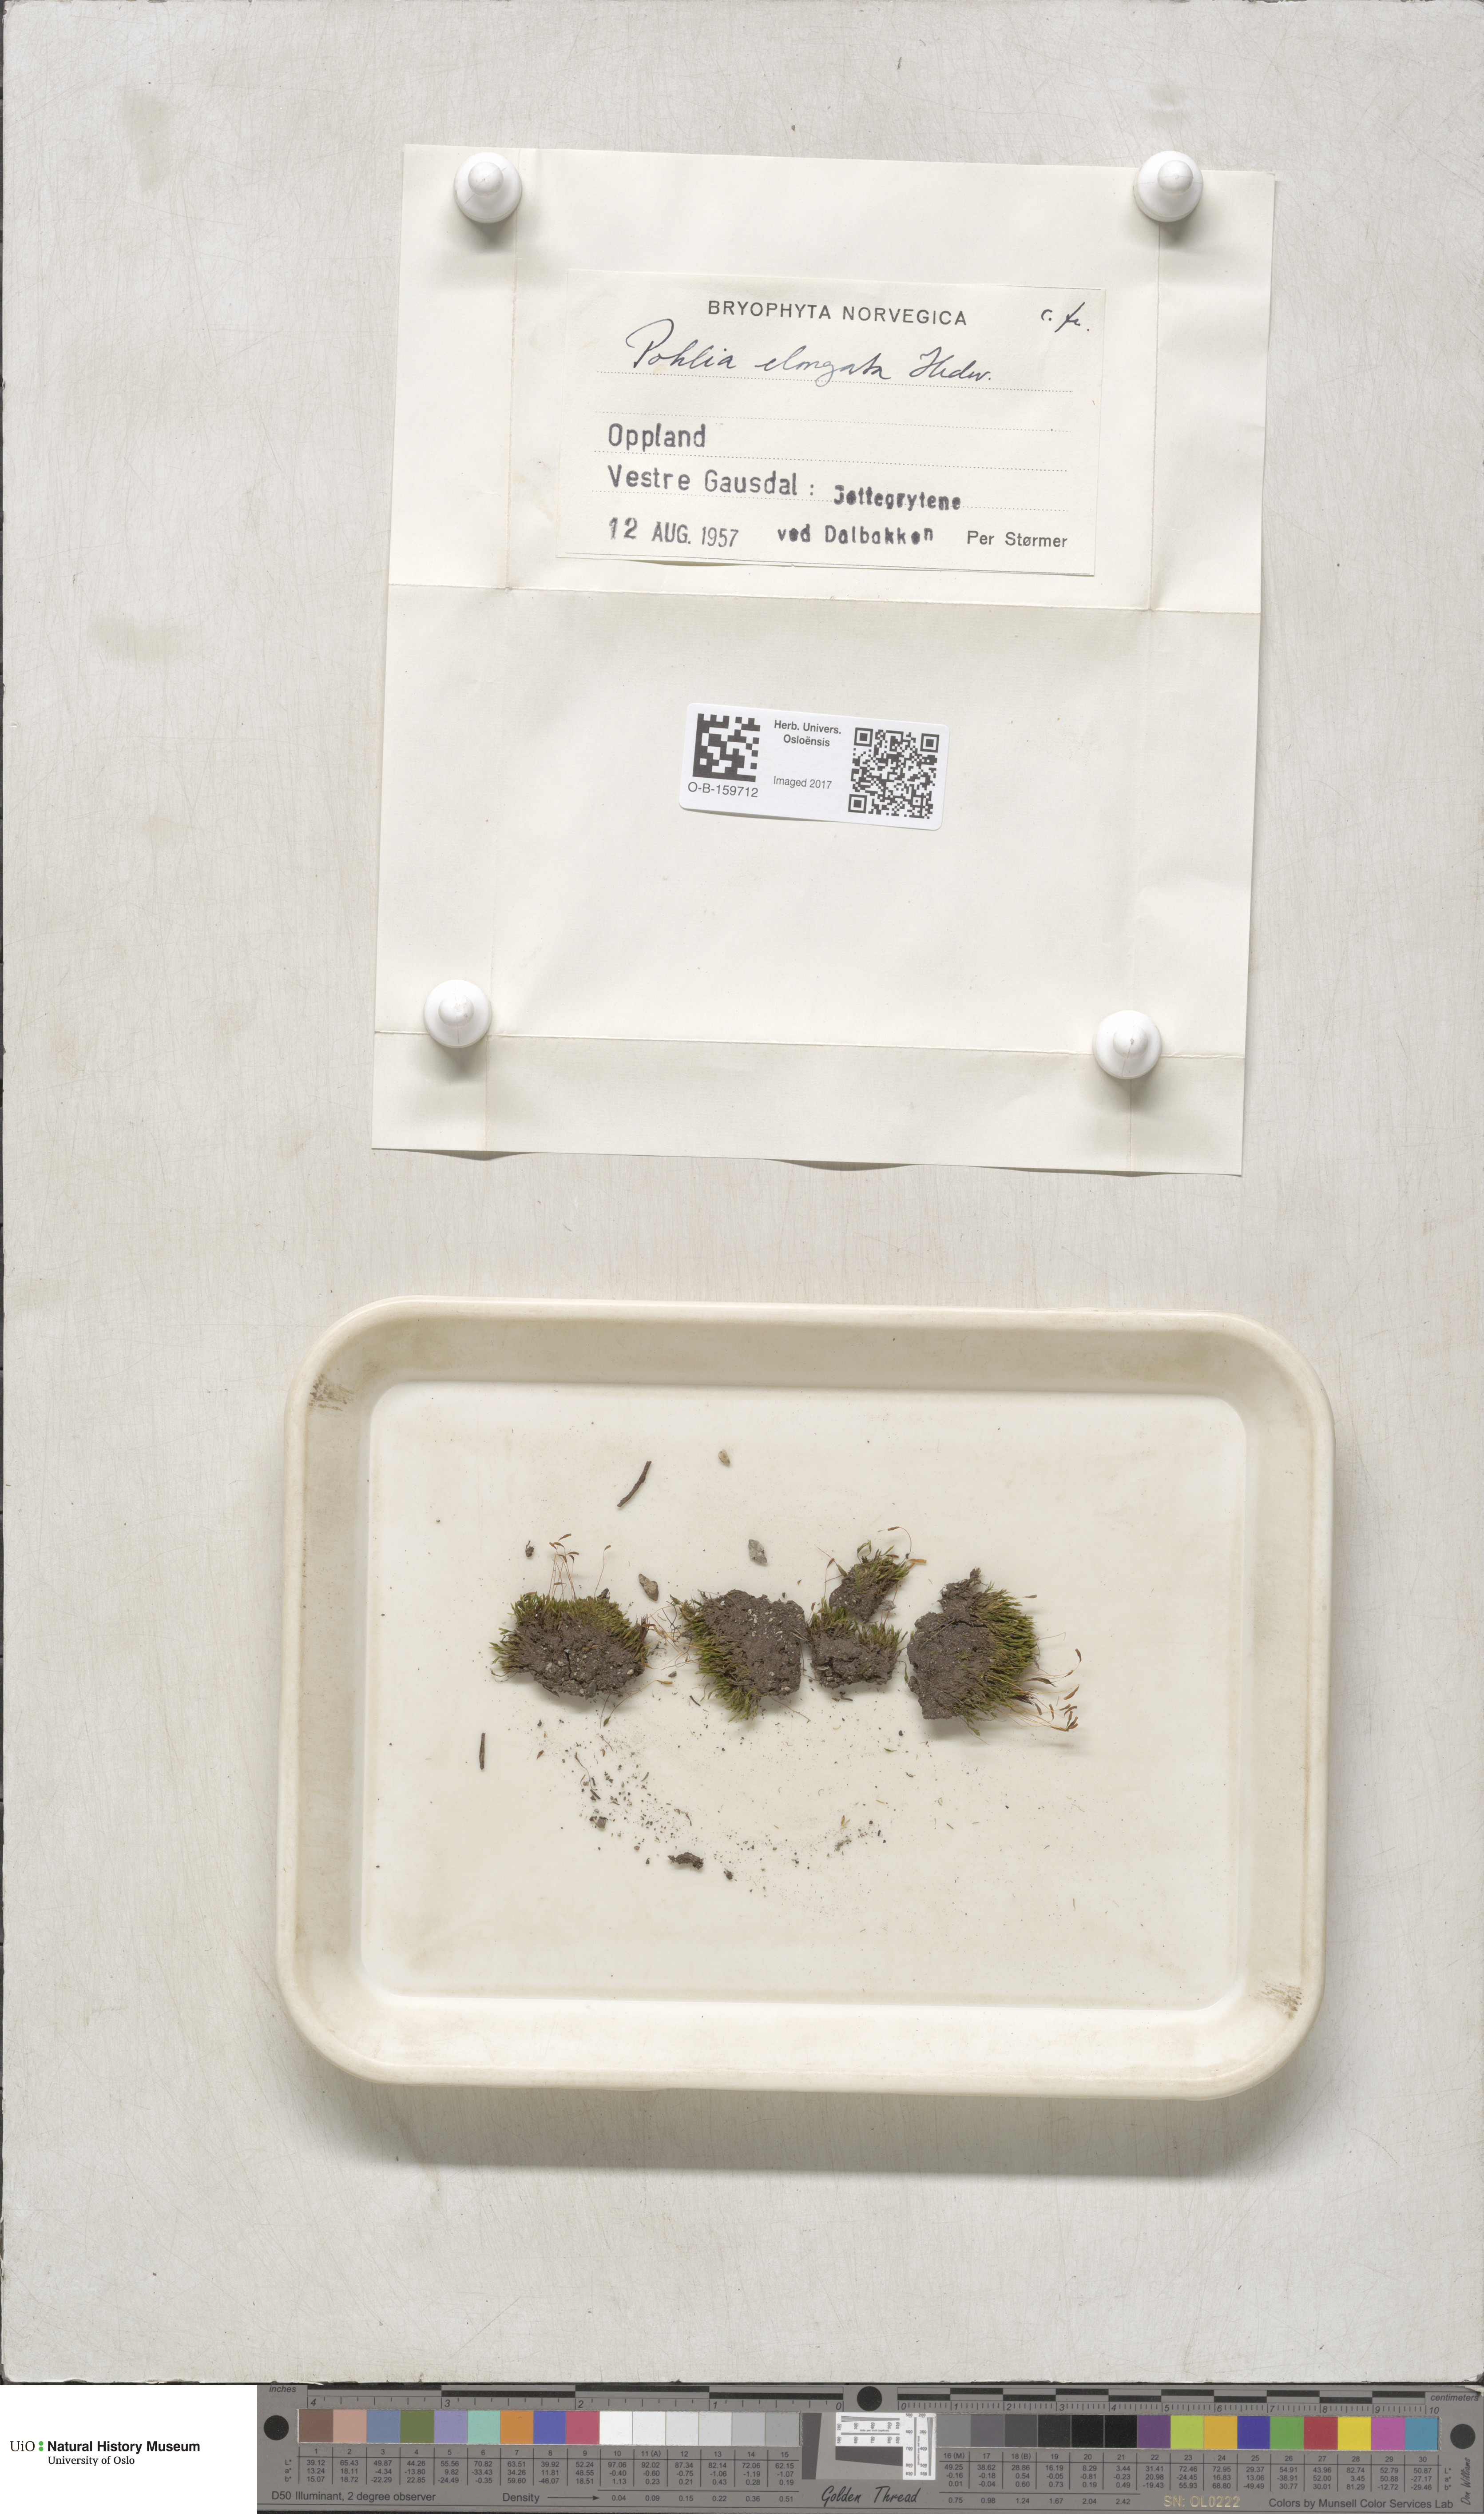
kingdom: Plantae
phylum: Bryophyta
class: Bryopsida
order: Bryales
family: Mniaceae
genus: Pohlia
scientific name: Pohlia elongata
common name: Long-fruited thread-moss
